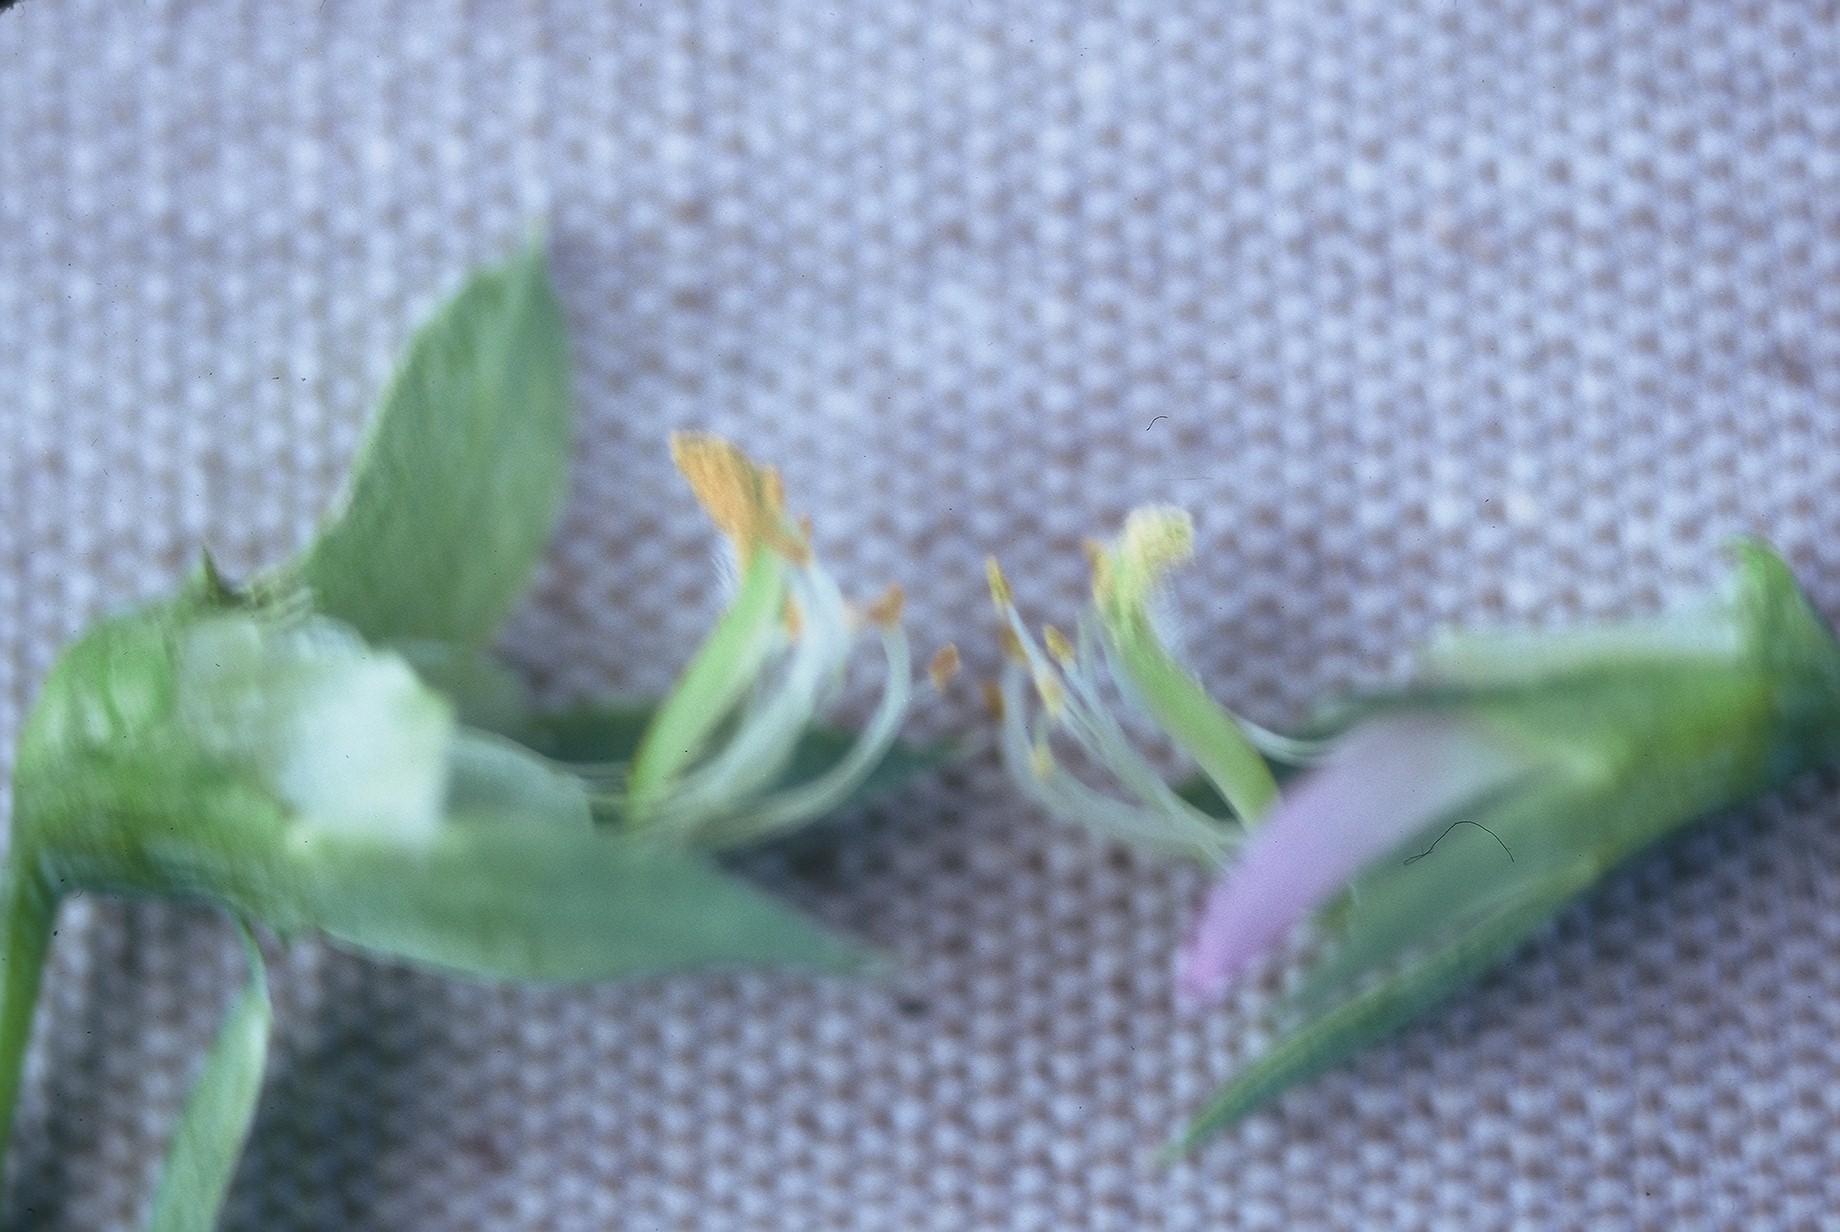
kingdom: Plantae
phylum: Tracheophyta
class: Magnoliopsida
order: Fabales
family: Fabaceae
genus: Lathyrus
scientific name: Lathyrus oleraceus
